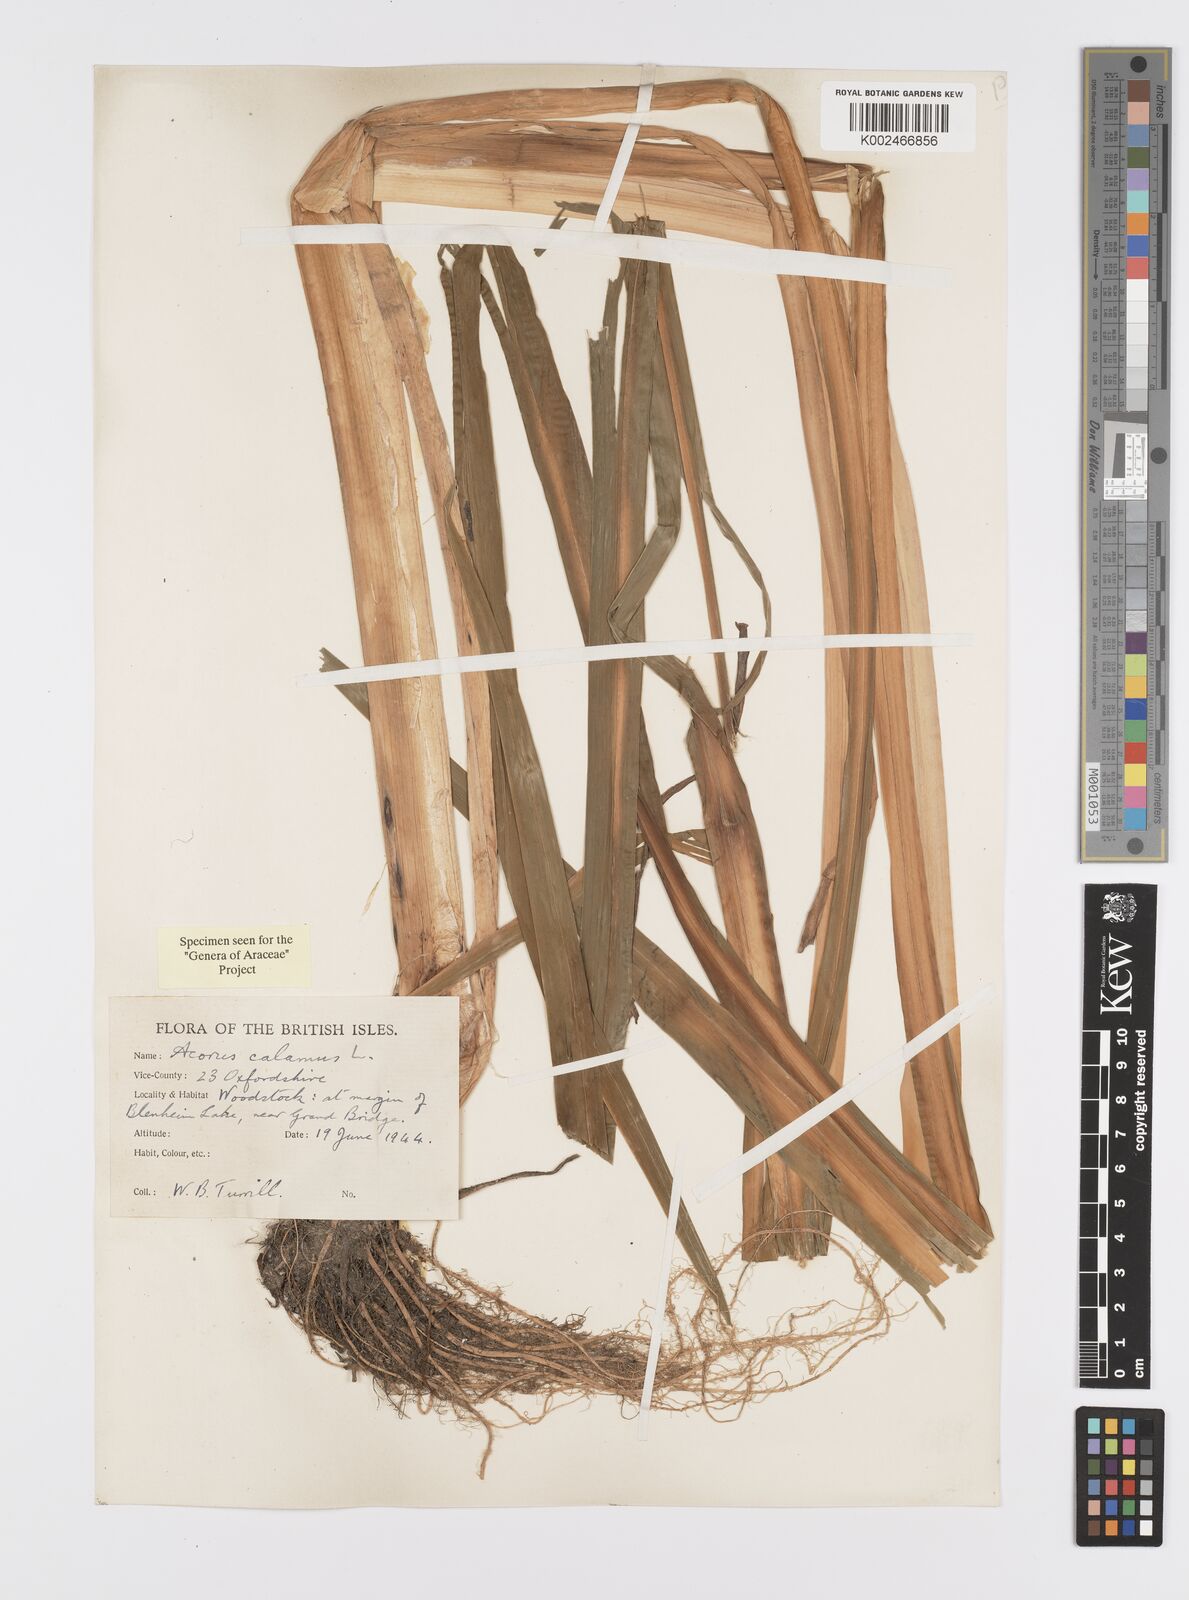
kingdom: Plantae
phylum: Tracheophyta
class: Liliopsida
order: Acorales
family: Acoraceae
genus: Acorus
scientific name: Acorus calamus
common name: Sweet-flag
